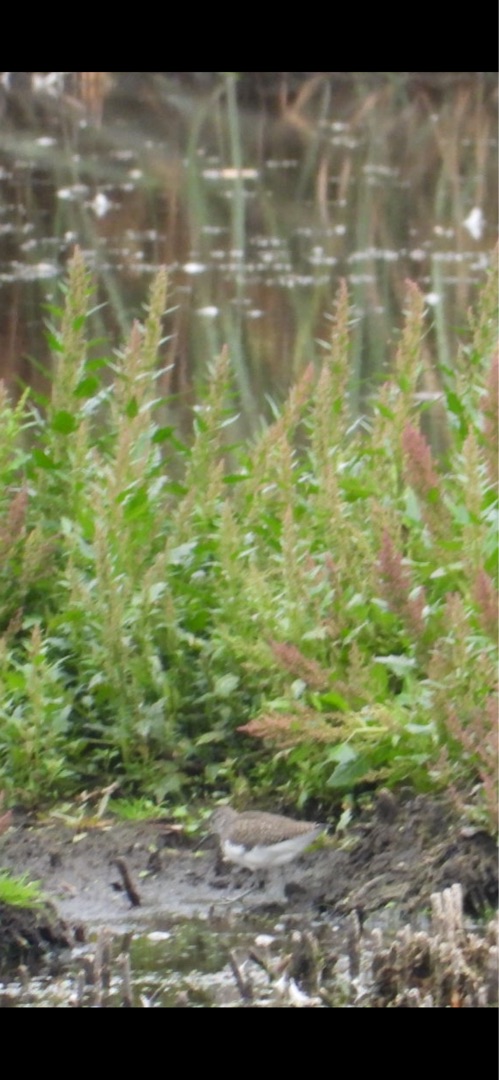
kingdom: Animalia
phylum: Chordata
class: Aves
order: Charadriiformes
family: Scolopacidae
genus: Tringa
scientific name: Tringa glareola
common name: Tinksmed
